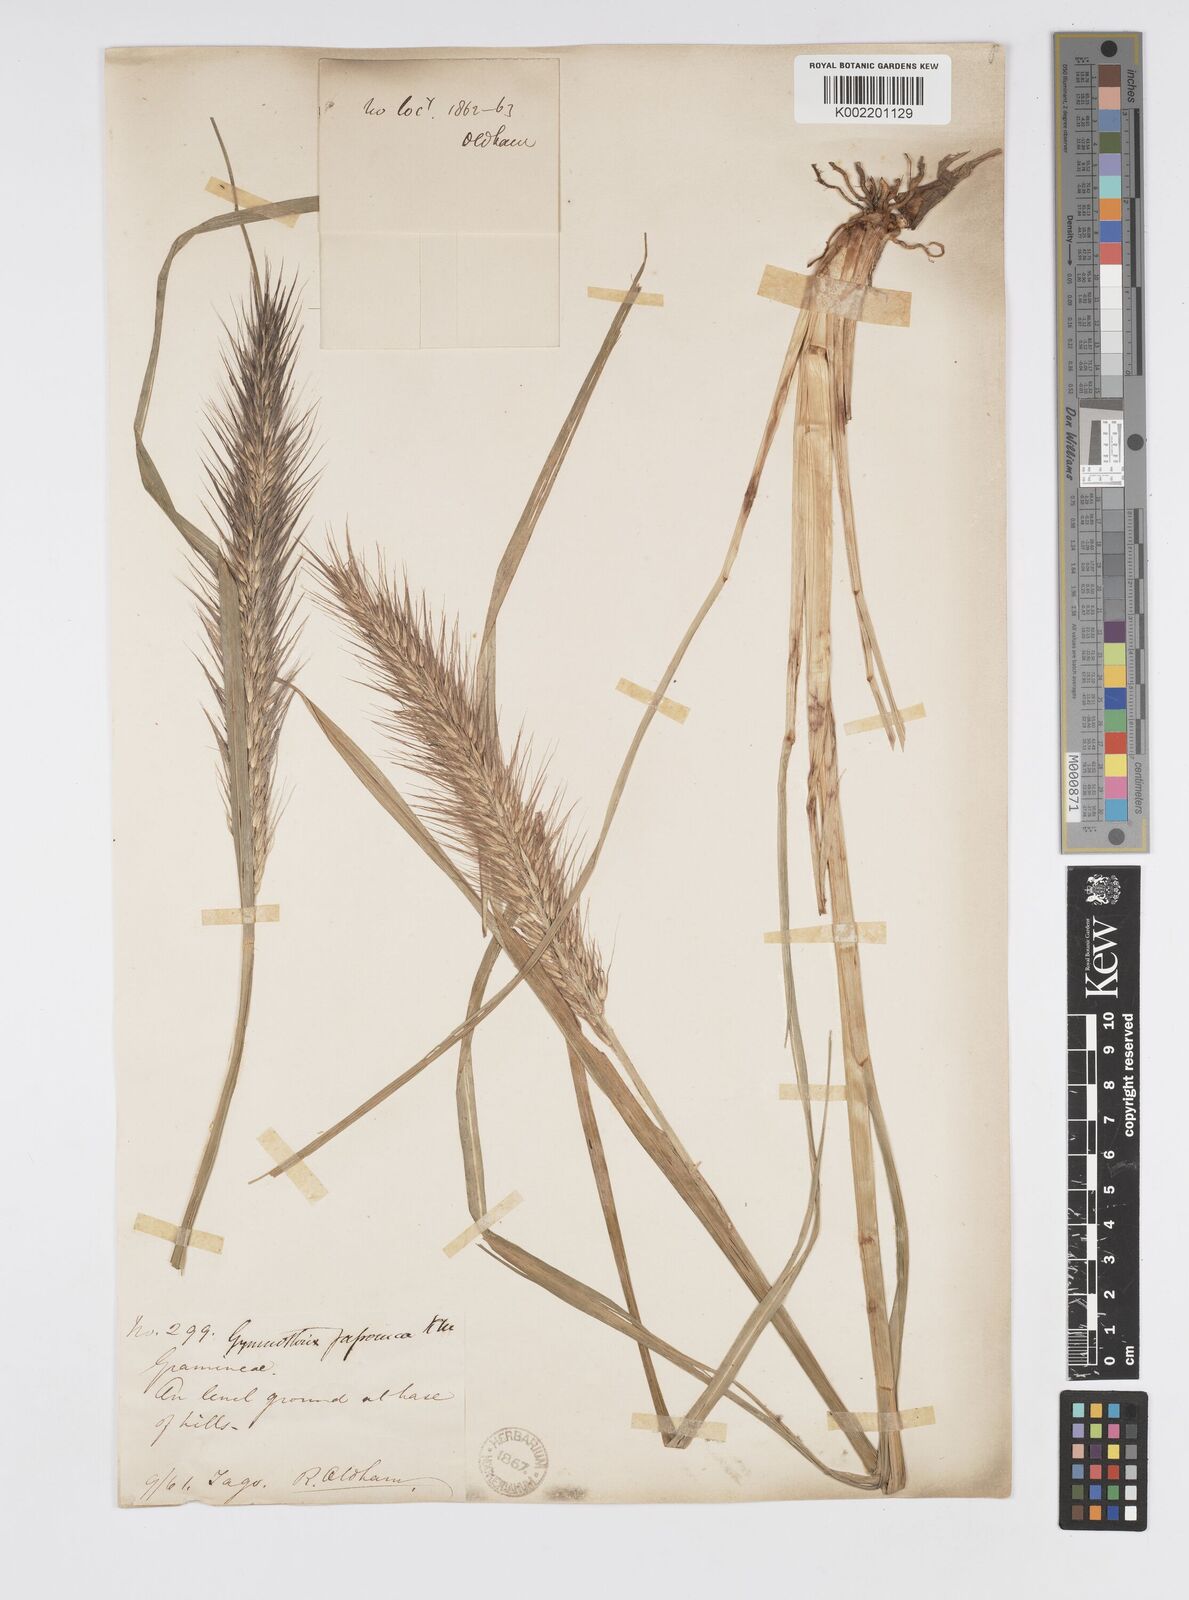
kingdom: Plantae
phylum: Tracheophyta
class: Liliopsida
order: Poales
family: Poaceae
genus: Cenchrus
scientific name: Cenchrus alopecuroides
